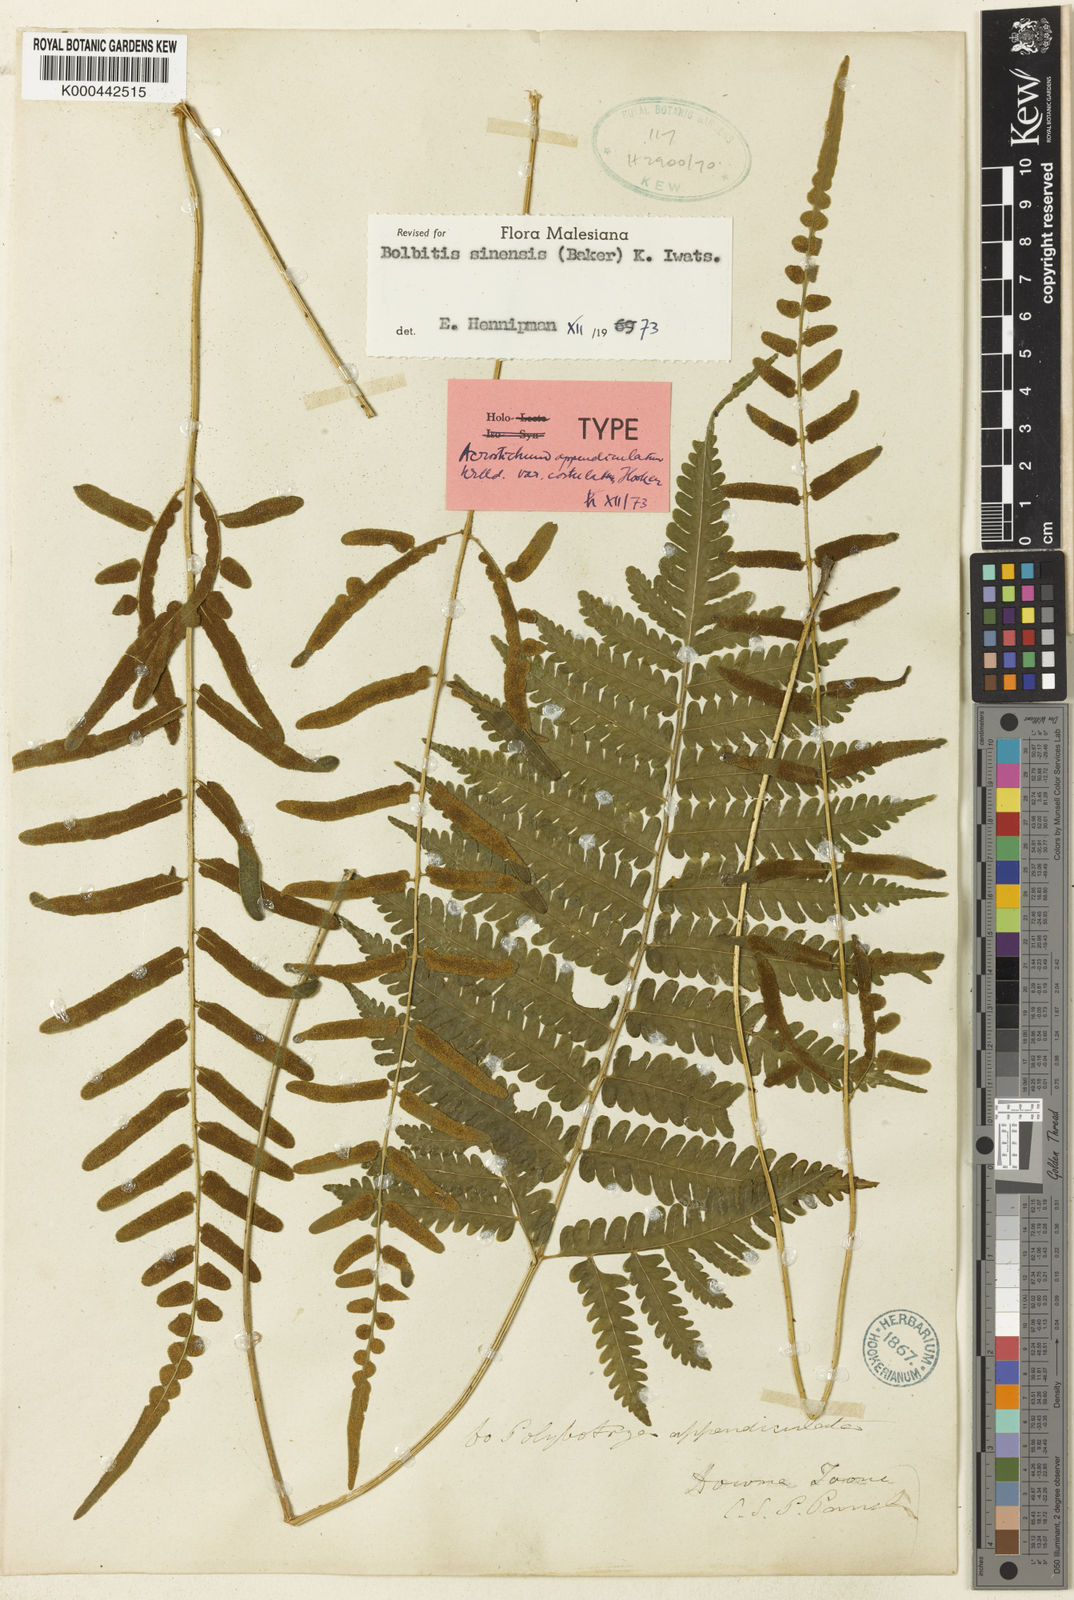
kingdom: Plantae
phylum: Tracheophyta
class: Polypodiopsida
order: Polypodiales
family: Dryopteridaceae
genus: Bolbitis
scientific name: Bolbitis sinensis
